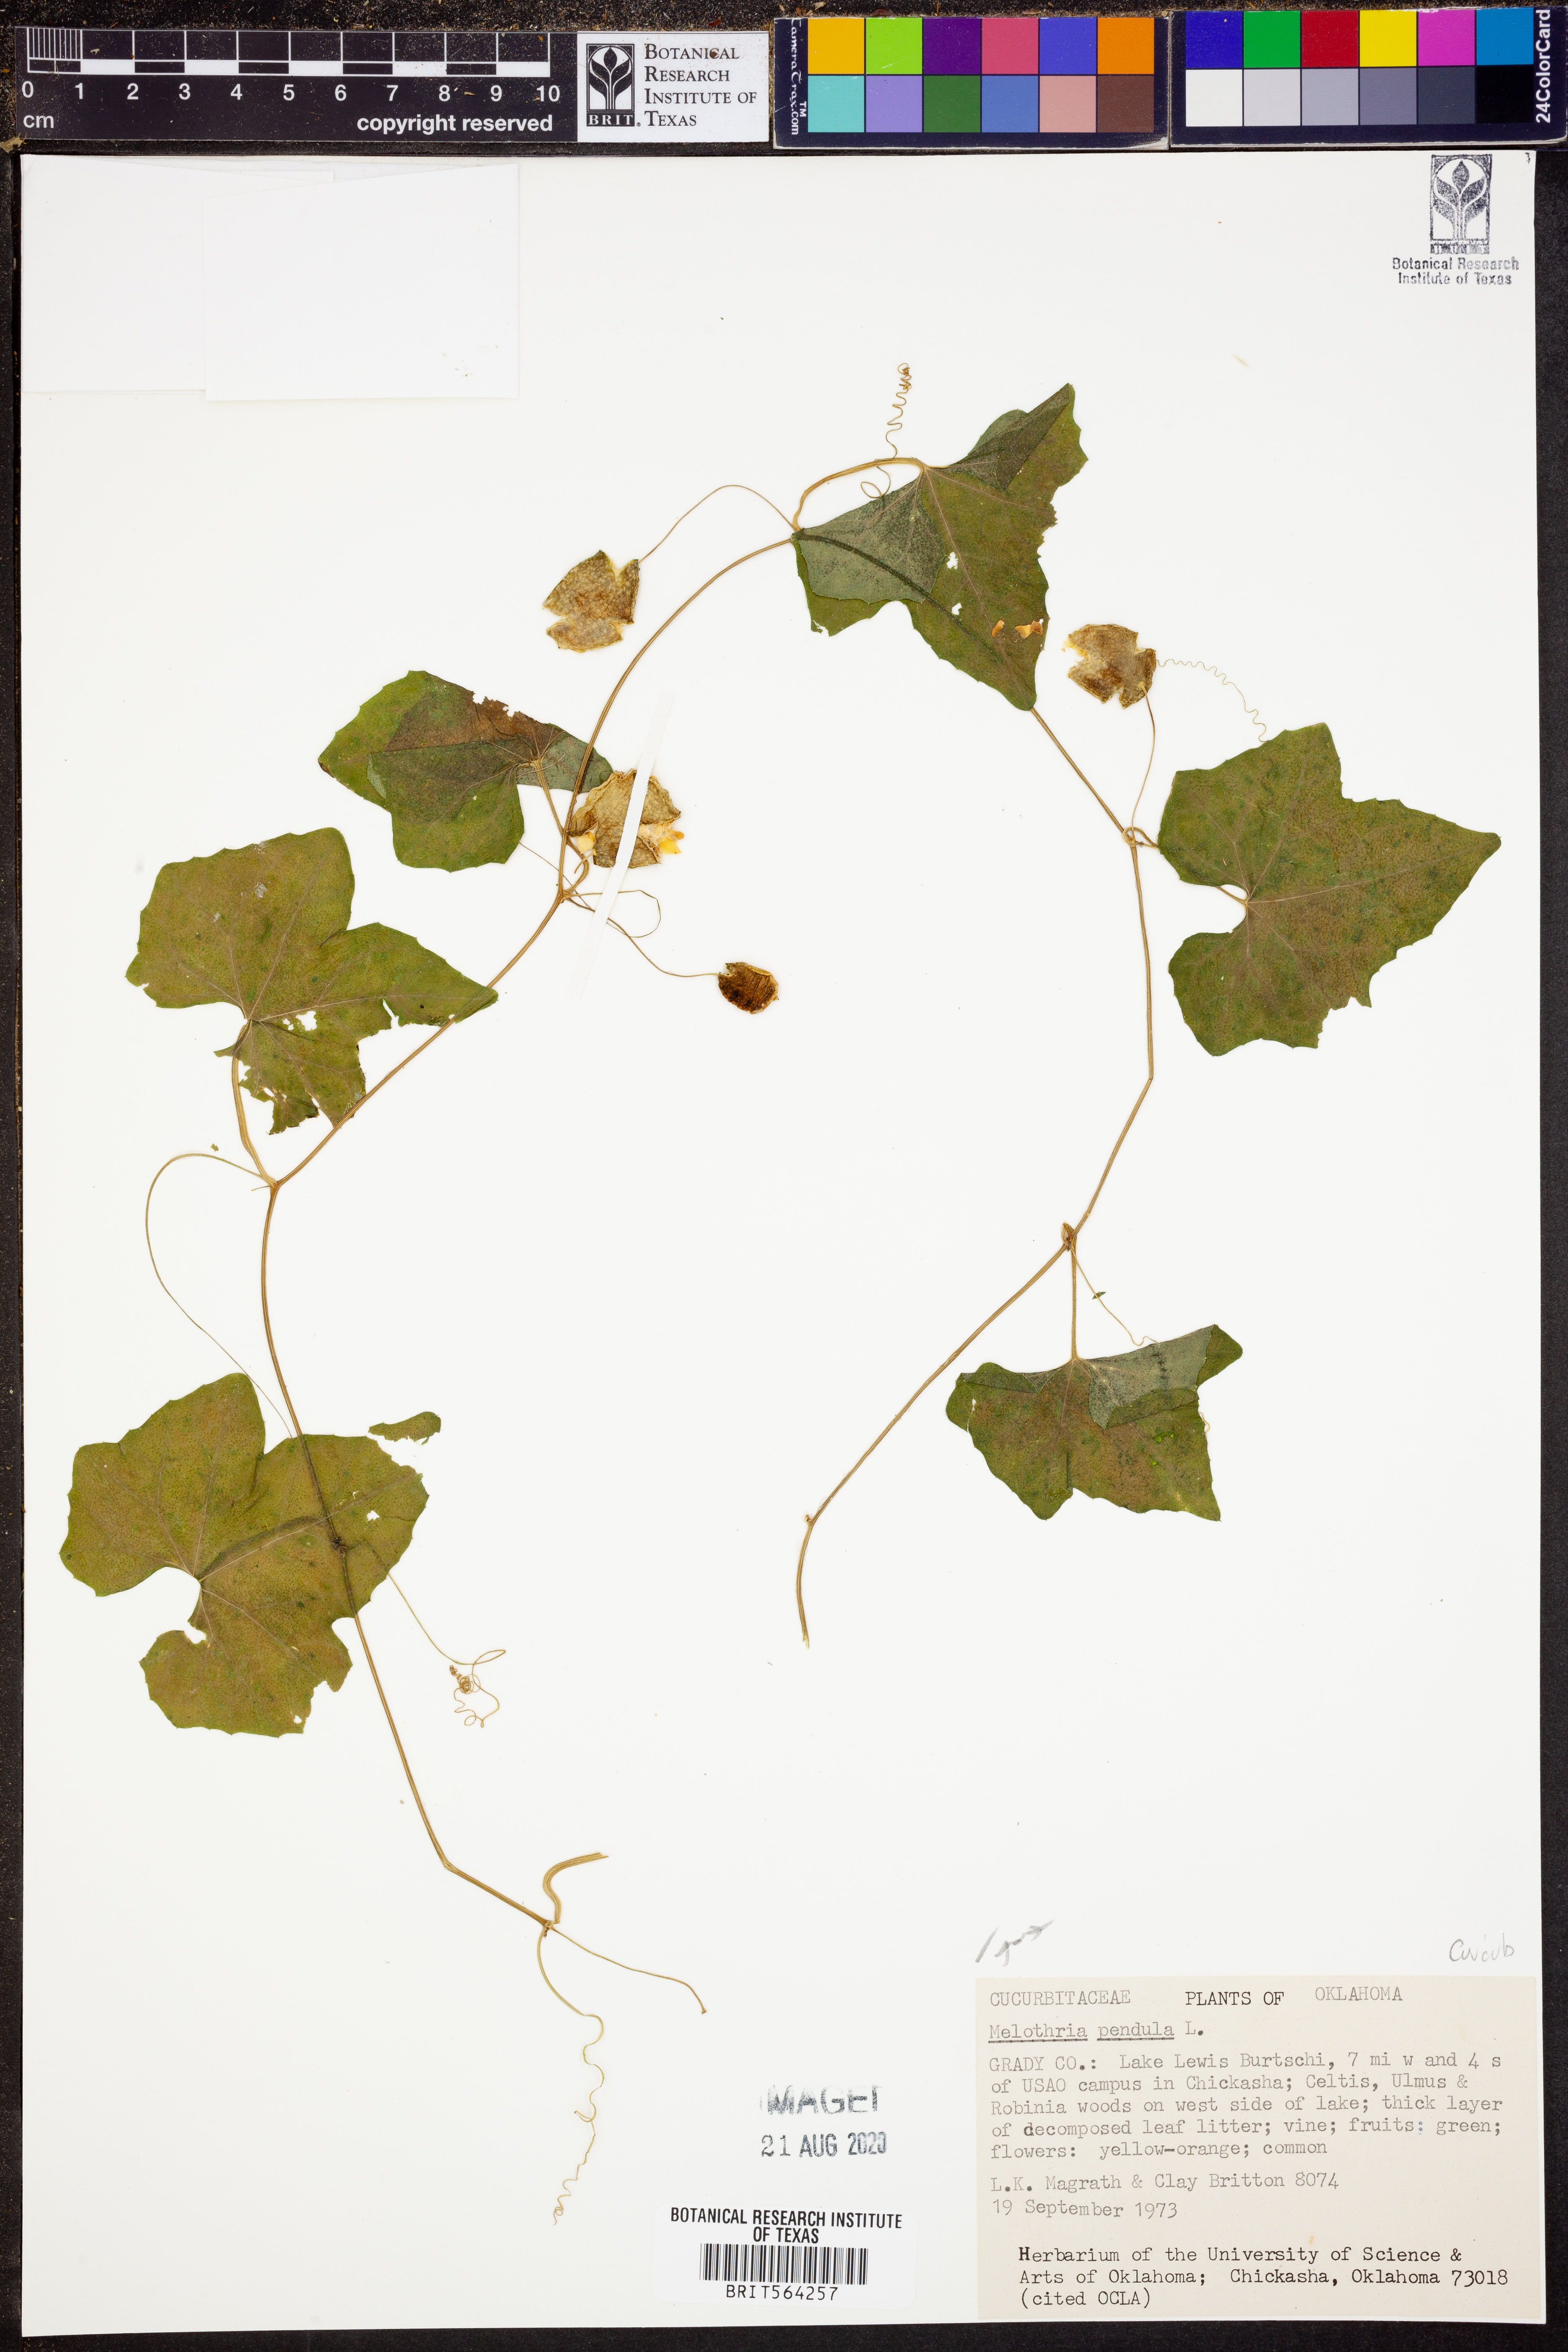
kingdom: Plantae
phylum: Tracheophyta
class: Magnoliopsida
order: Cucurbitales
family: Cucurbitaceae
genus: Melothria
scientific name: Melothria pendula
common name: Creeping-cucumber
